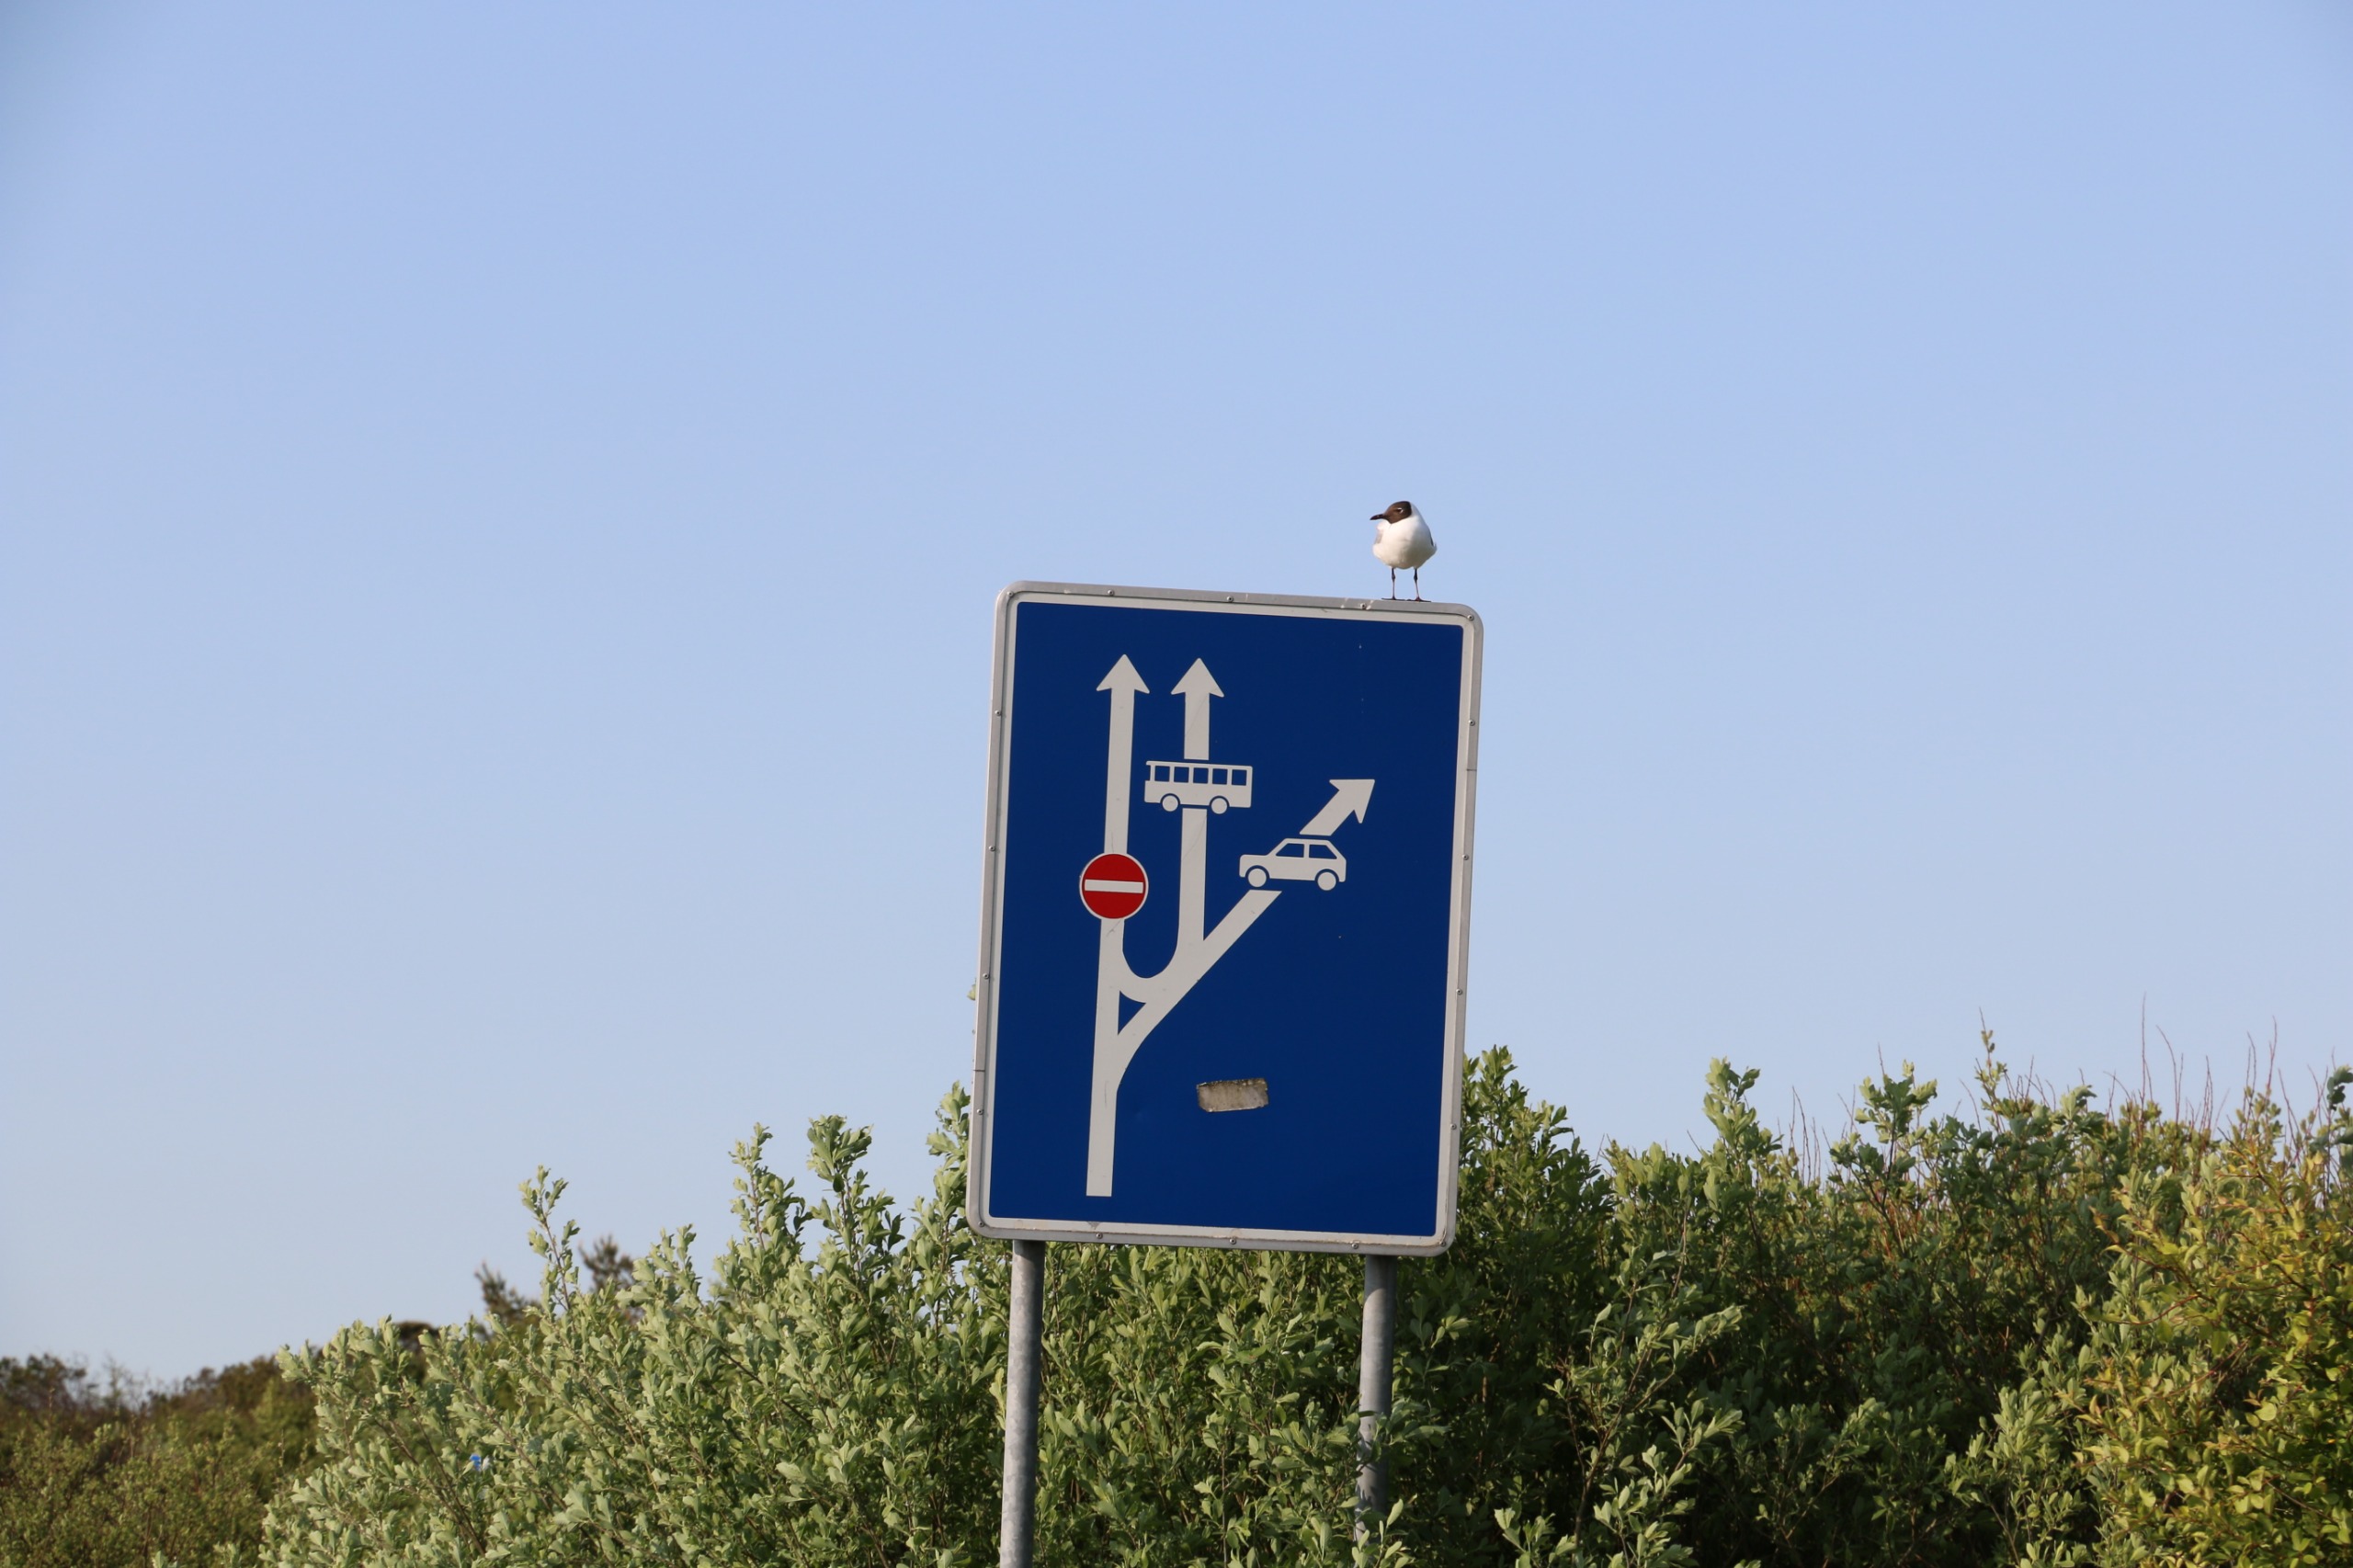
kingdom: Animalia
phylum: Chordata
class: Aves
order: Charadriiformes
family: Laridae
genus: Chroicocephalus
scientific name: Chroicocephalus ridibundus
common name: Hættemåge
